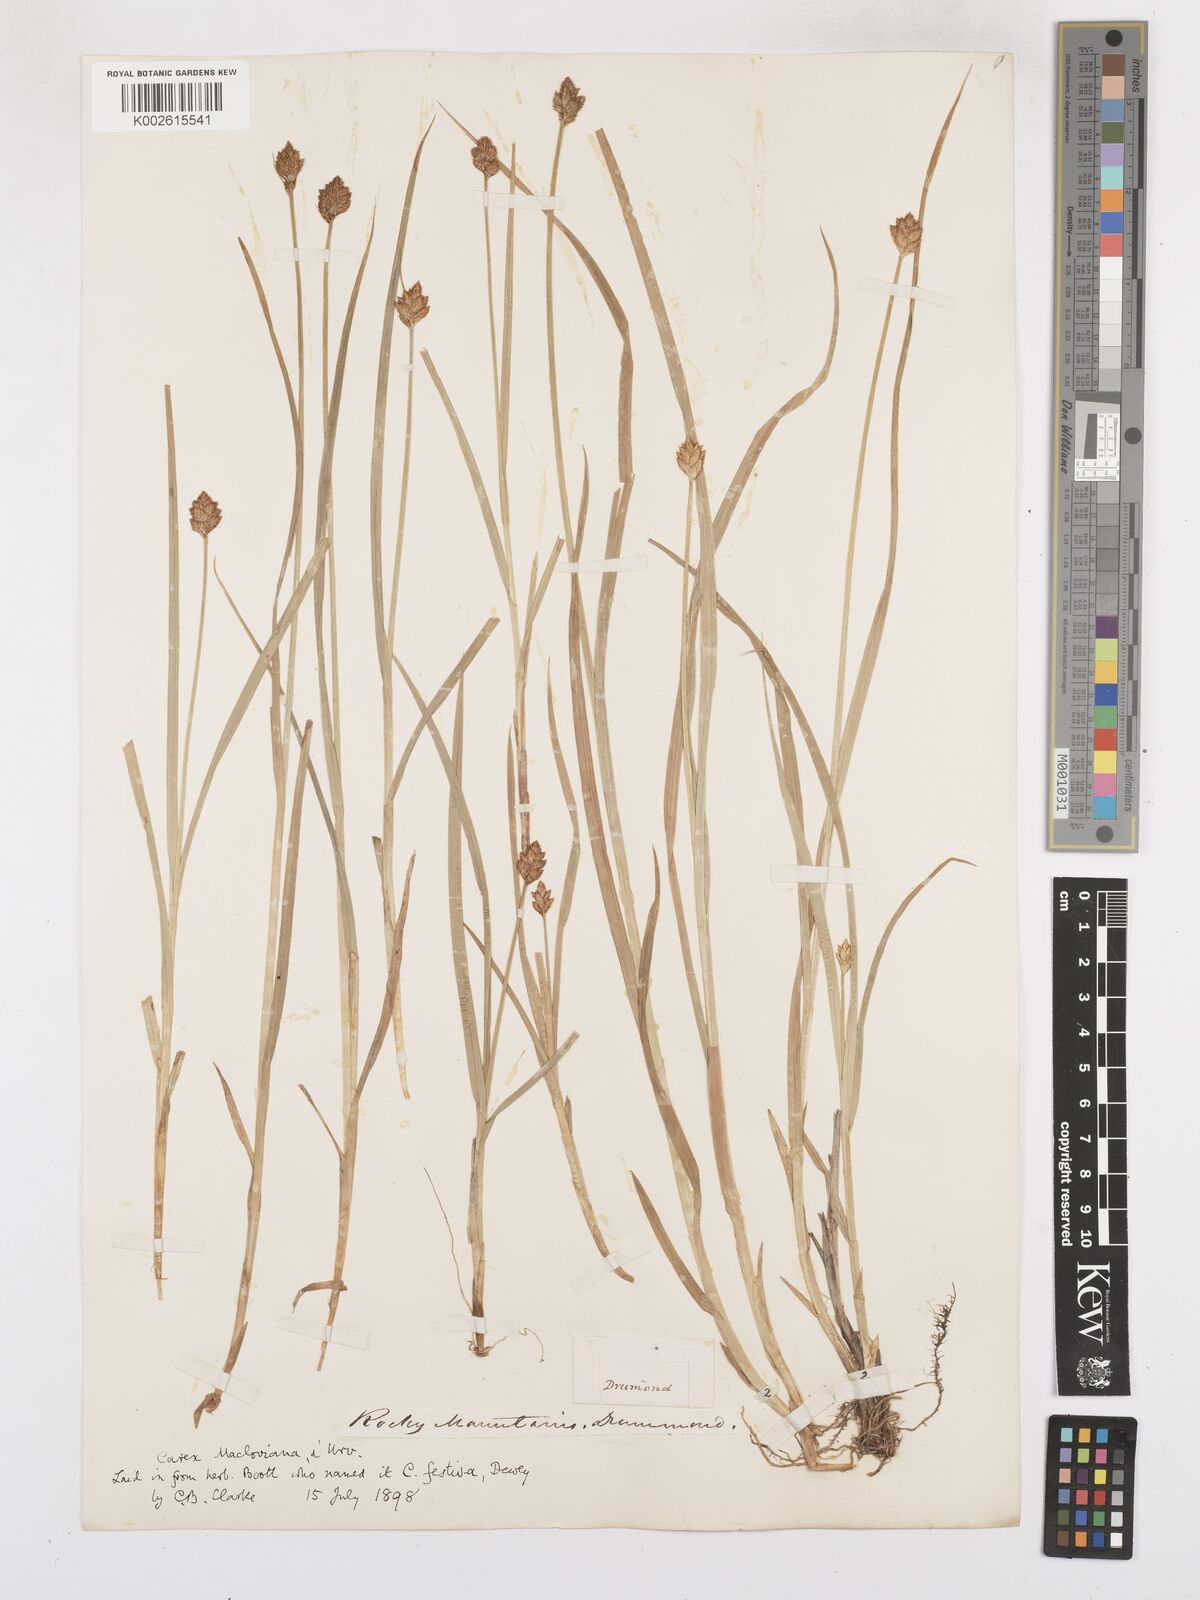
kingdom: Plantae
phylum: Tracheophyta
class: Liliopsida
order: Poales
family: Cyperaceae
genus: Carex
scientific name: Carex subfusca
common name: Brown sedge
